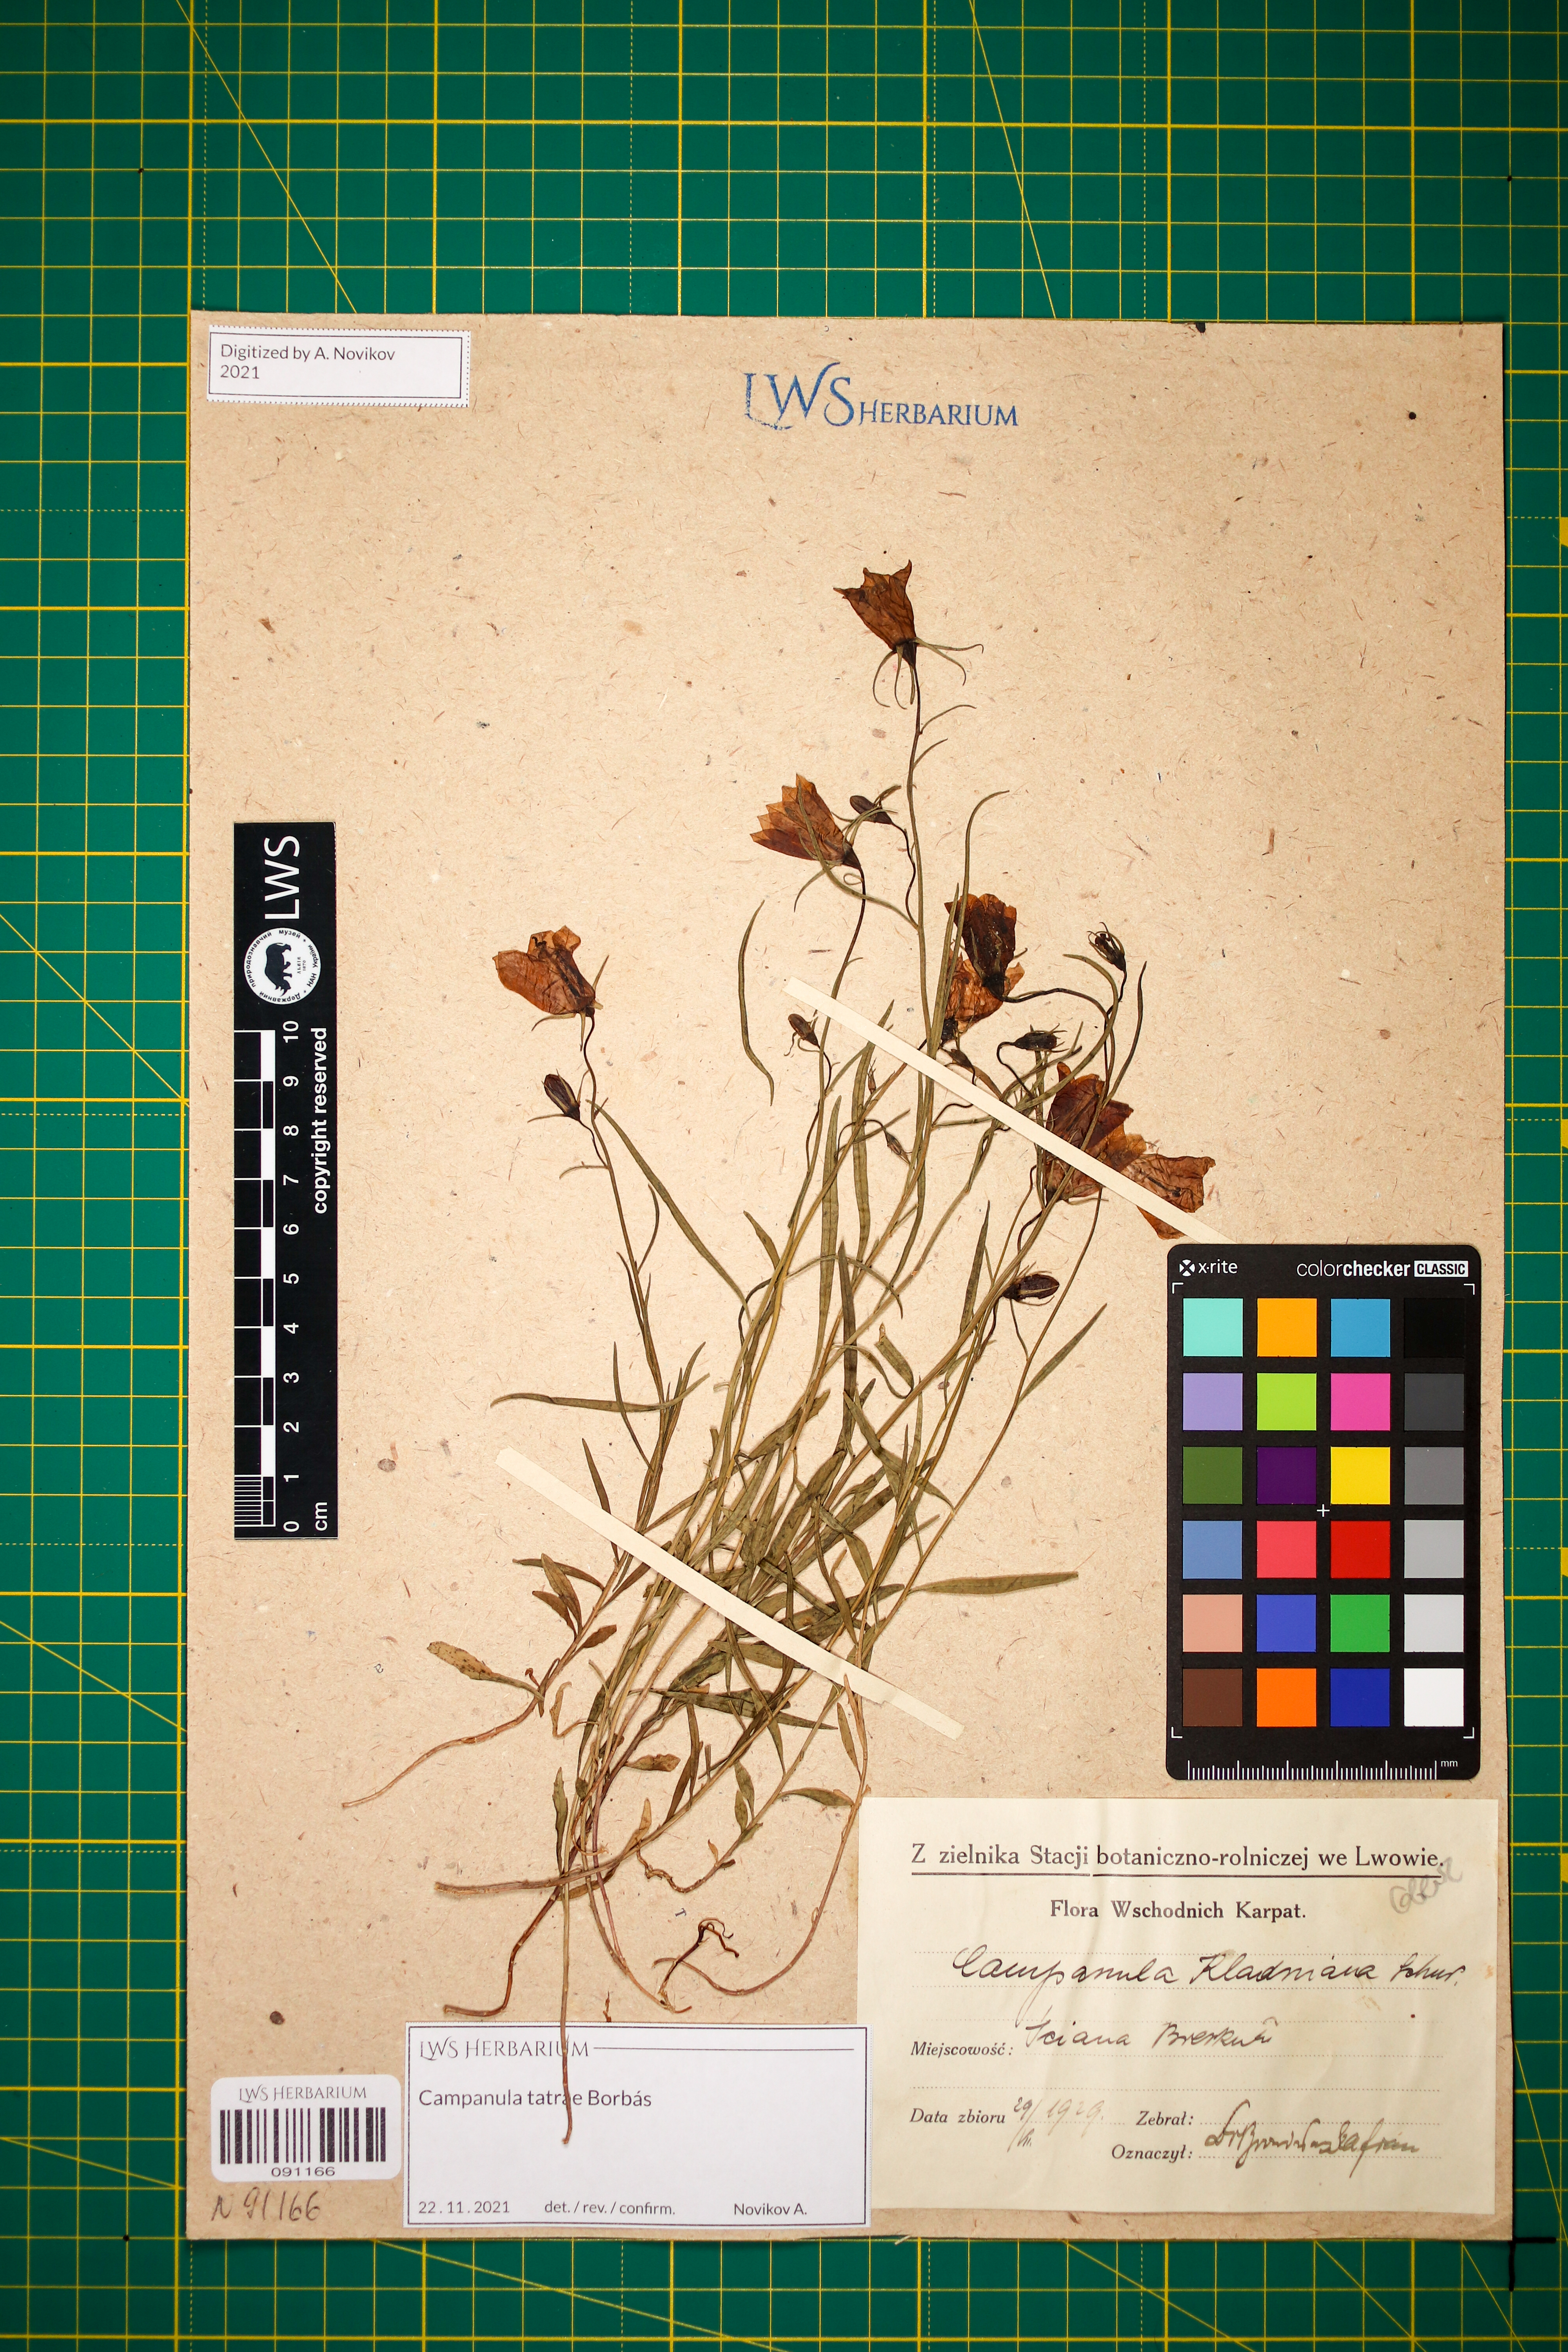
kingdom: Plantae
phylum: Tracheophyta
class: Magnoliopsida
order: Asterales
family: Campanulaceae
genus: Campanula
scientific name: Campanula kladniana
